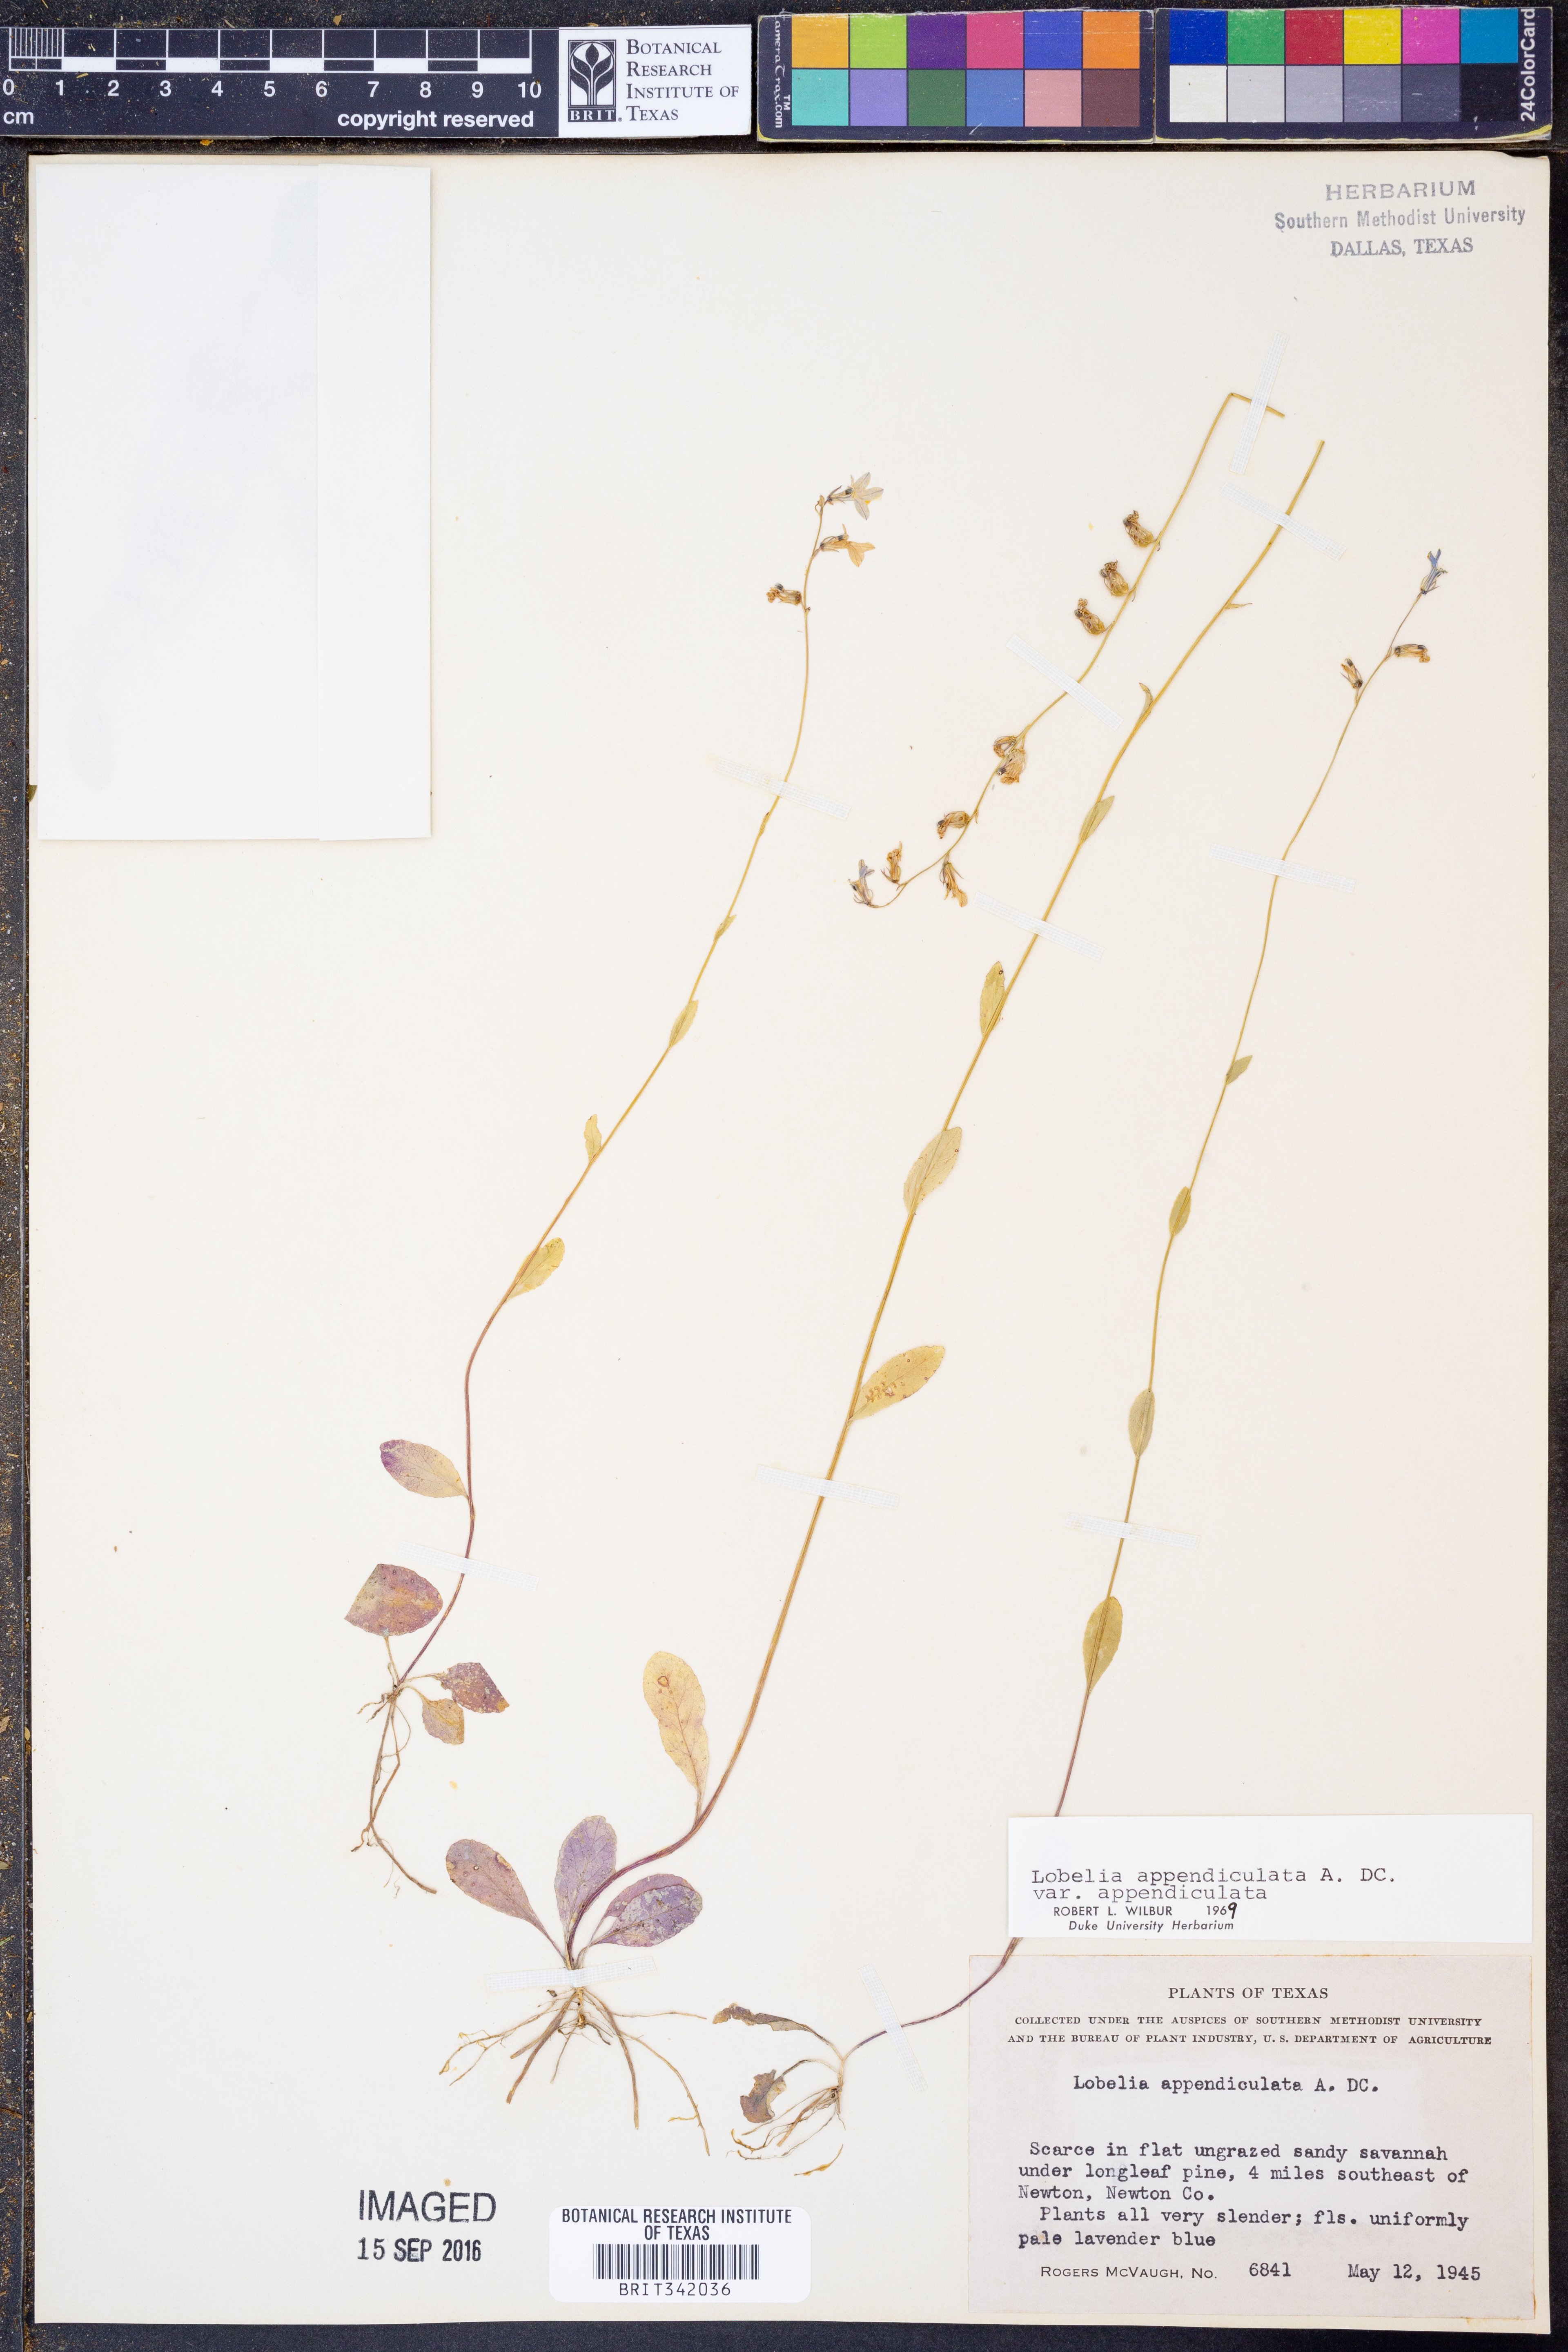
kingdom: Plantae
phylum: Tracheophyta
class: Magnoliopsida
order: Asterales
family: Campanulaceae
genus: Lobelia
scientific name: Lobelia appendiculata
